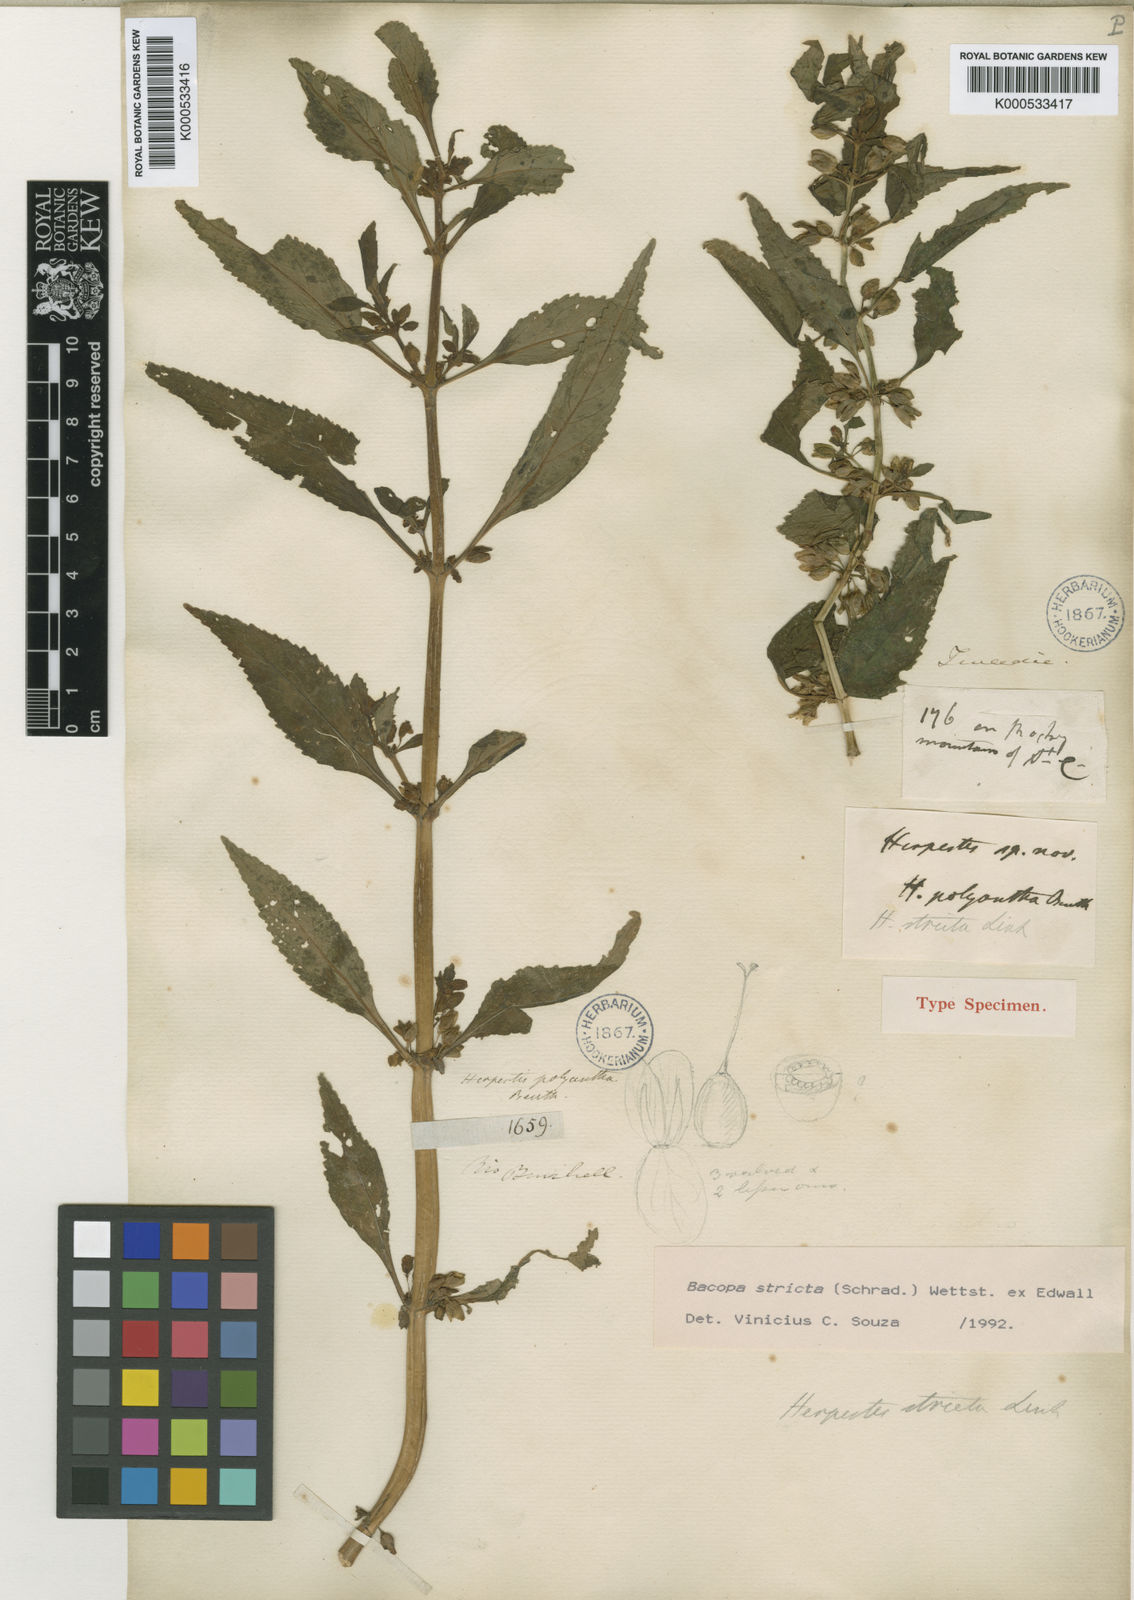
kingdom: Plantae
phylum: Tracheophyta
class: Magnoliopsida
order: Lamiales
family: Plantaginaceae
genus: Bacopa
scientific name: Bacopa stricta
